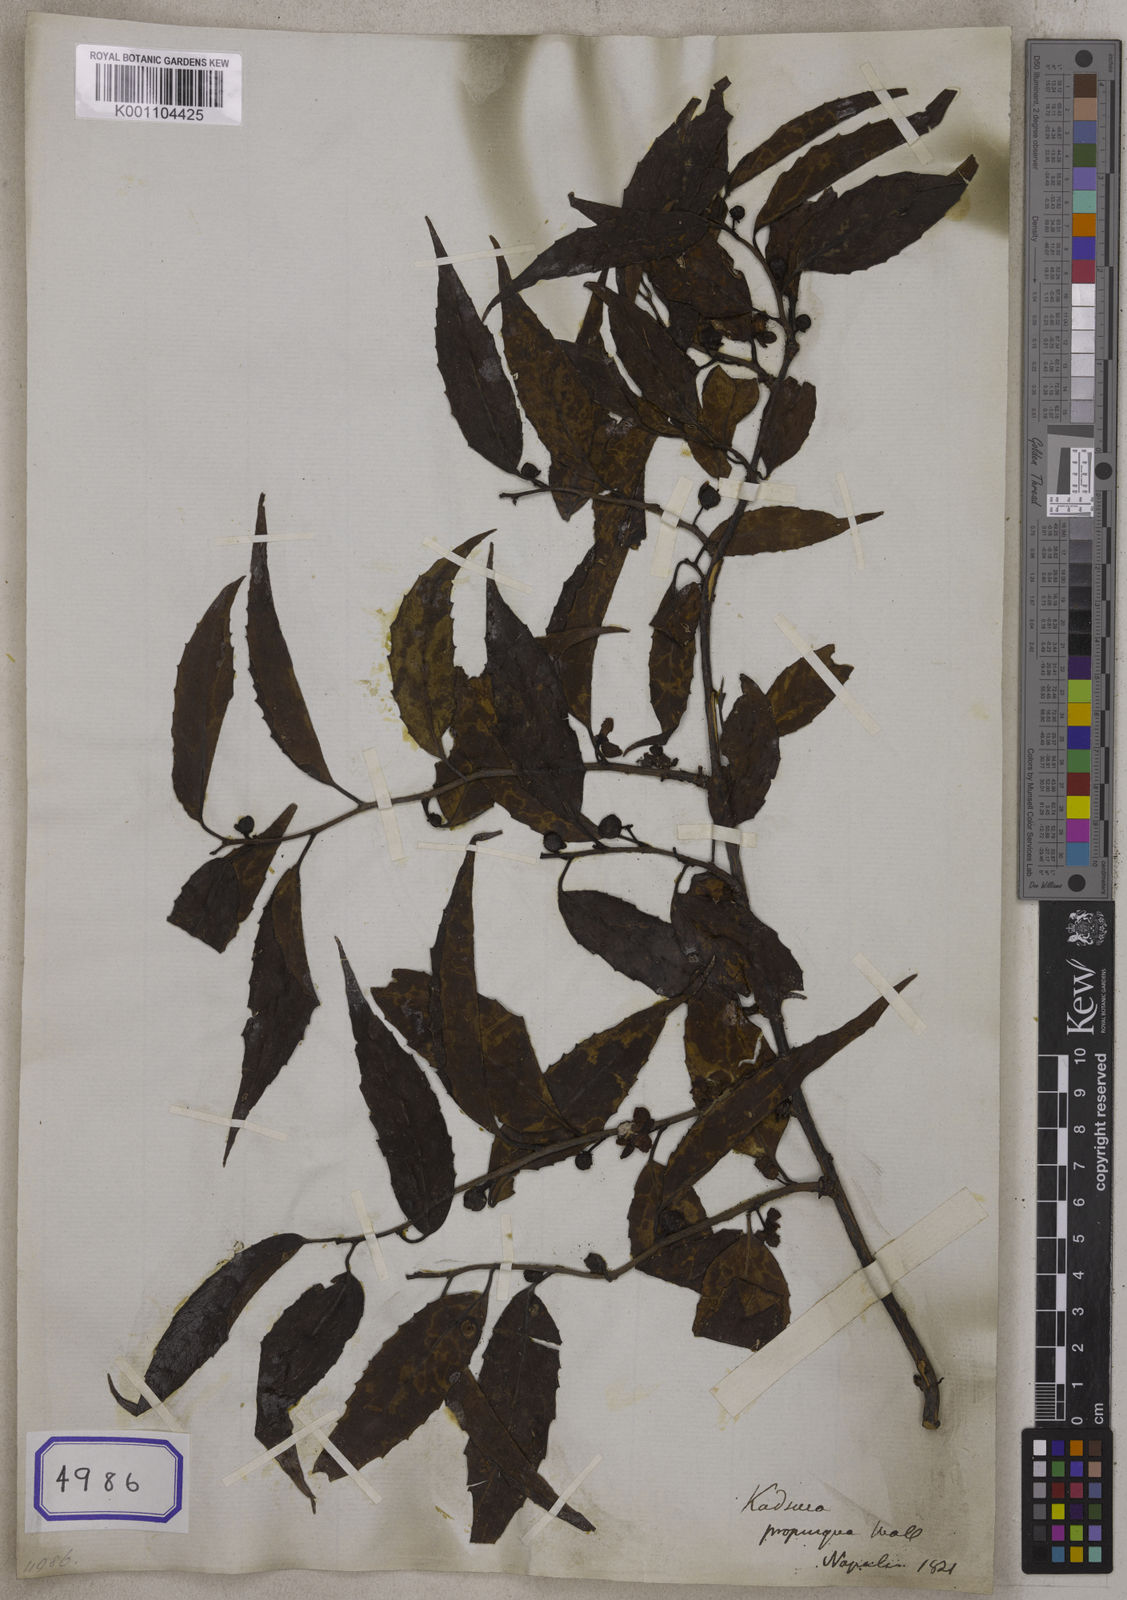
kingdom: Plantae
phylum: Tracheophyta
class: Magnoliopsida
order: Austrobaileyales
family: Schisandraceae
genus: Schisandra
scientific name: Schisandra propinqua
